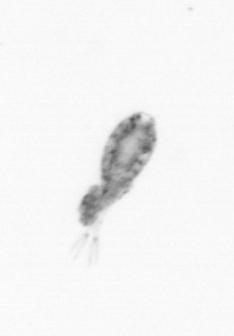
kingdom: Animalia
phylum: Arthropoda
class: Copepoda
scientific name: Copepoda
